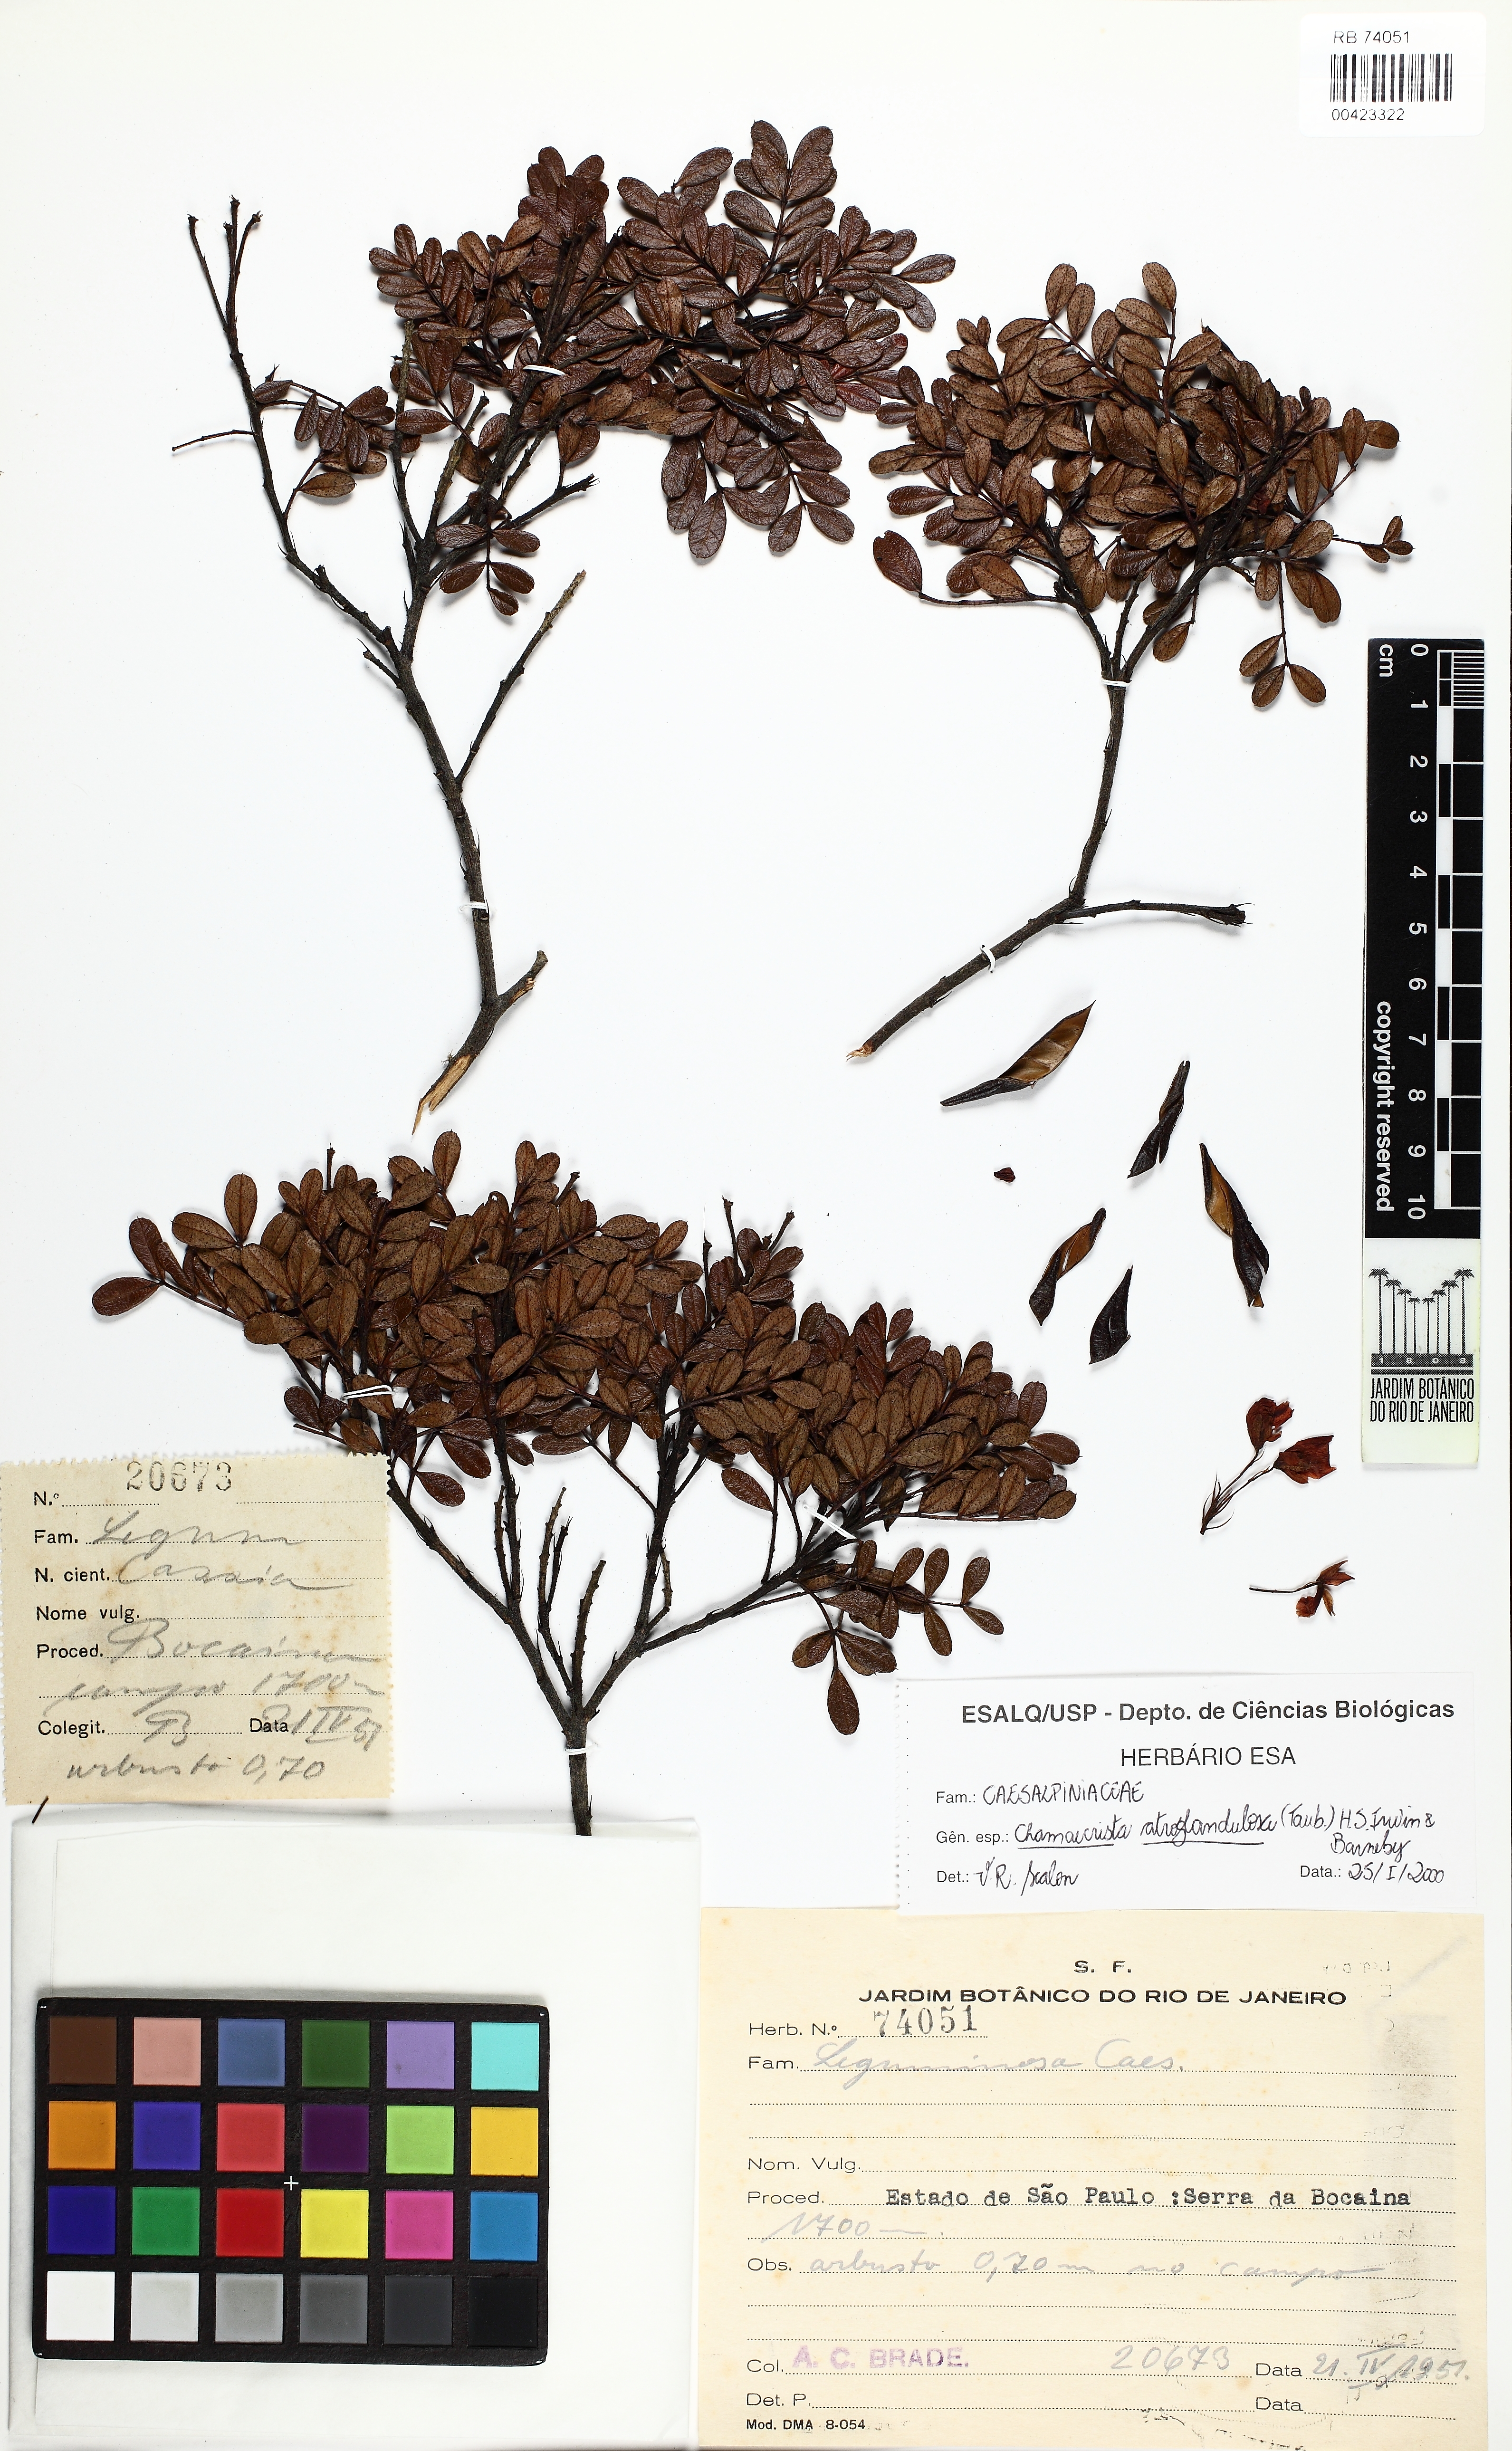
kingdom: Plantae
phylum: Tracheophyta
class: Magnoliopsida
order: Fabales
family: Fabaceae
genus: Chamaecrista
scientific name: Chamaecrista atroglandulosa
